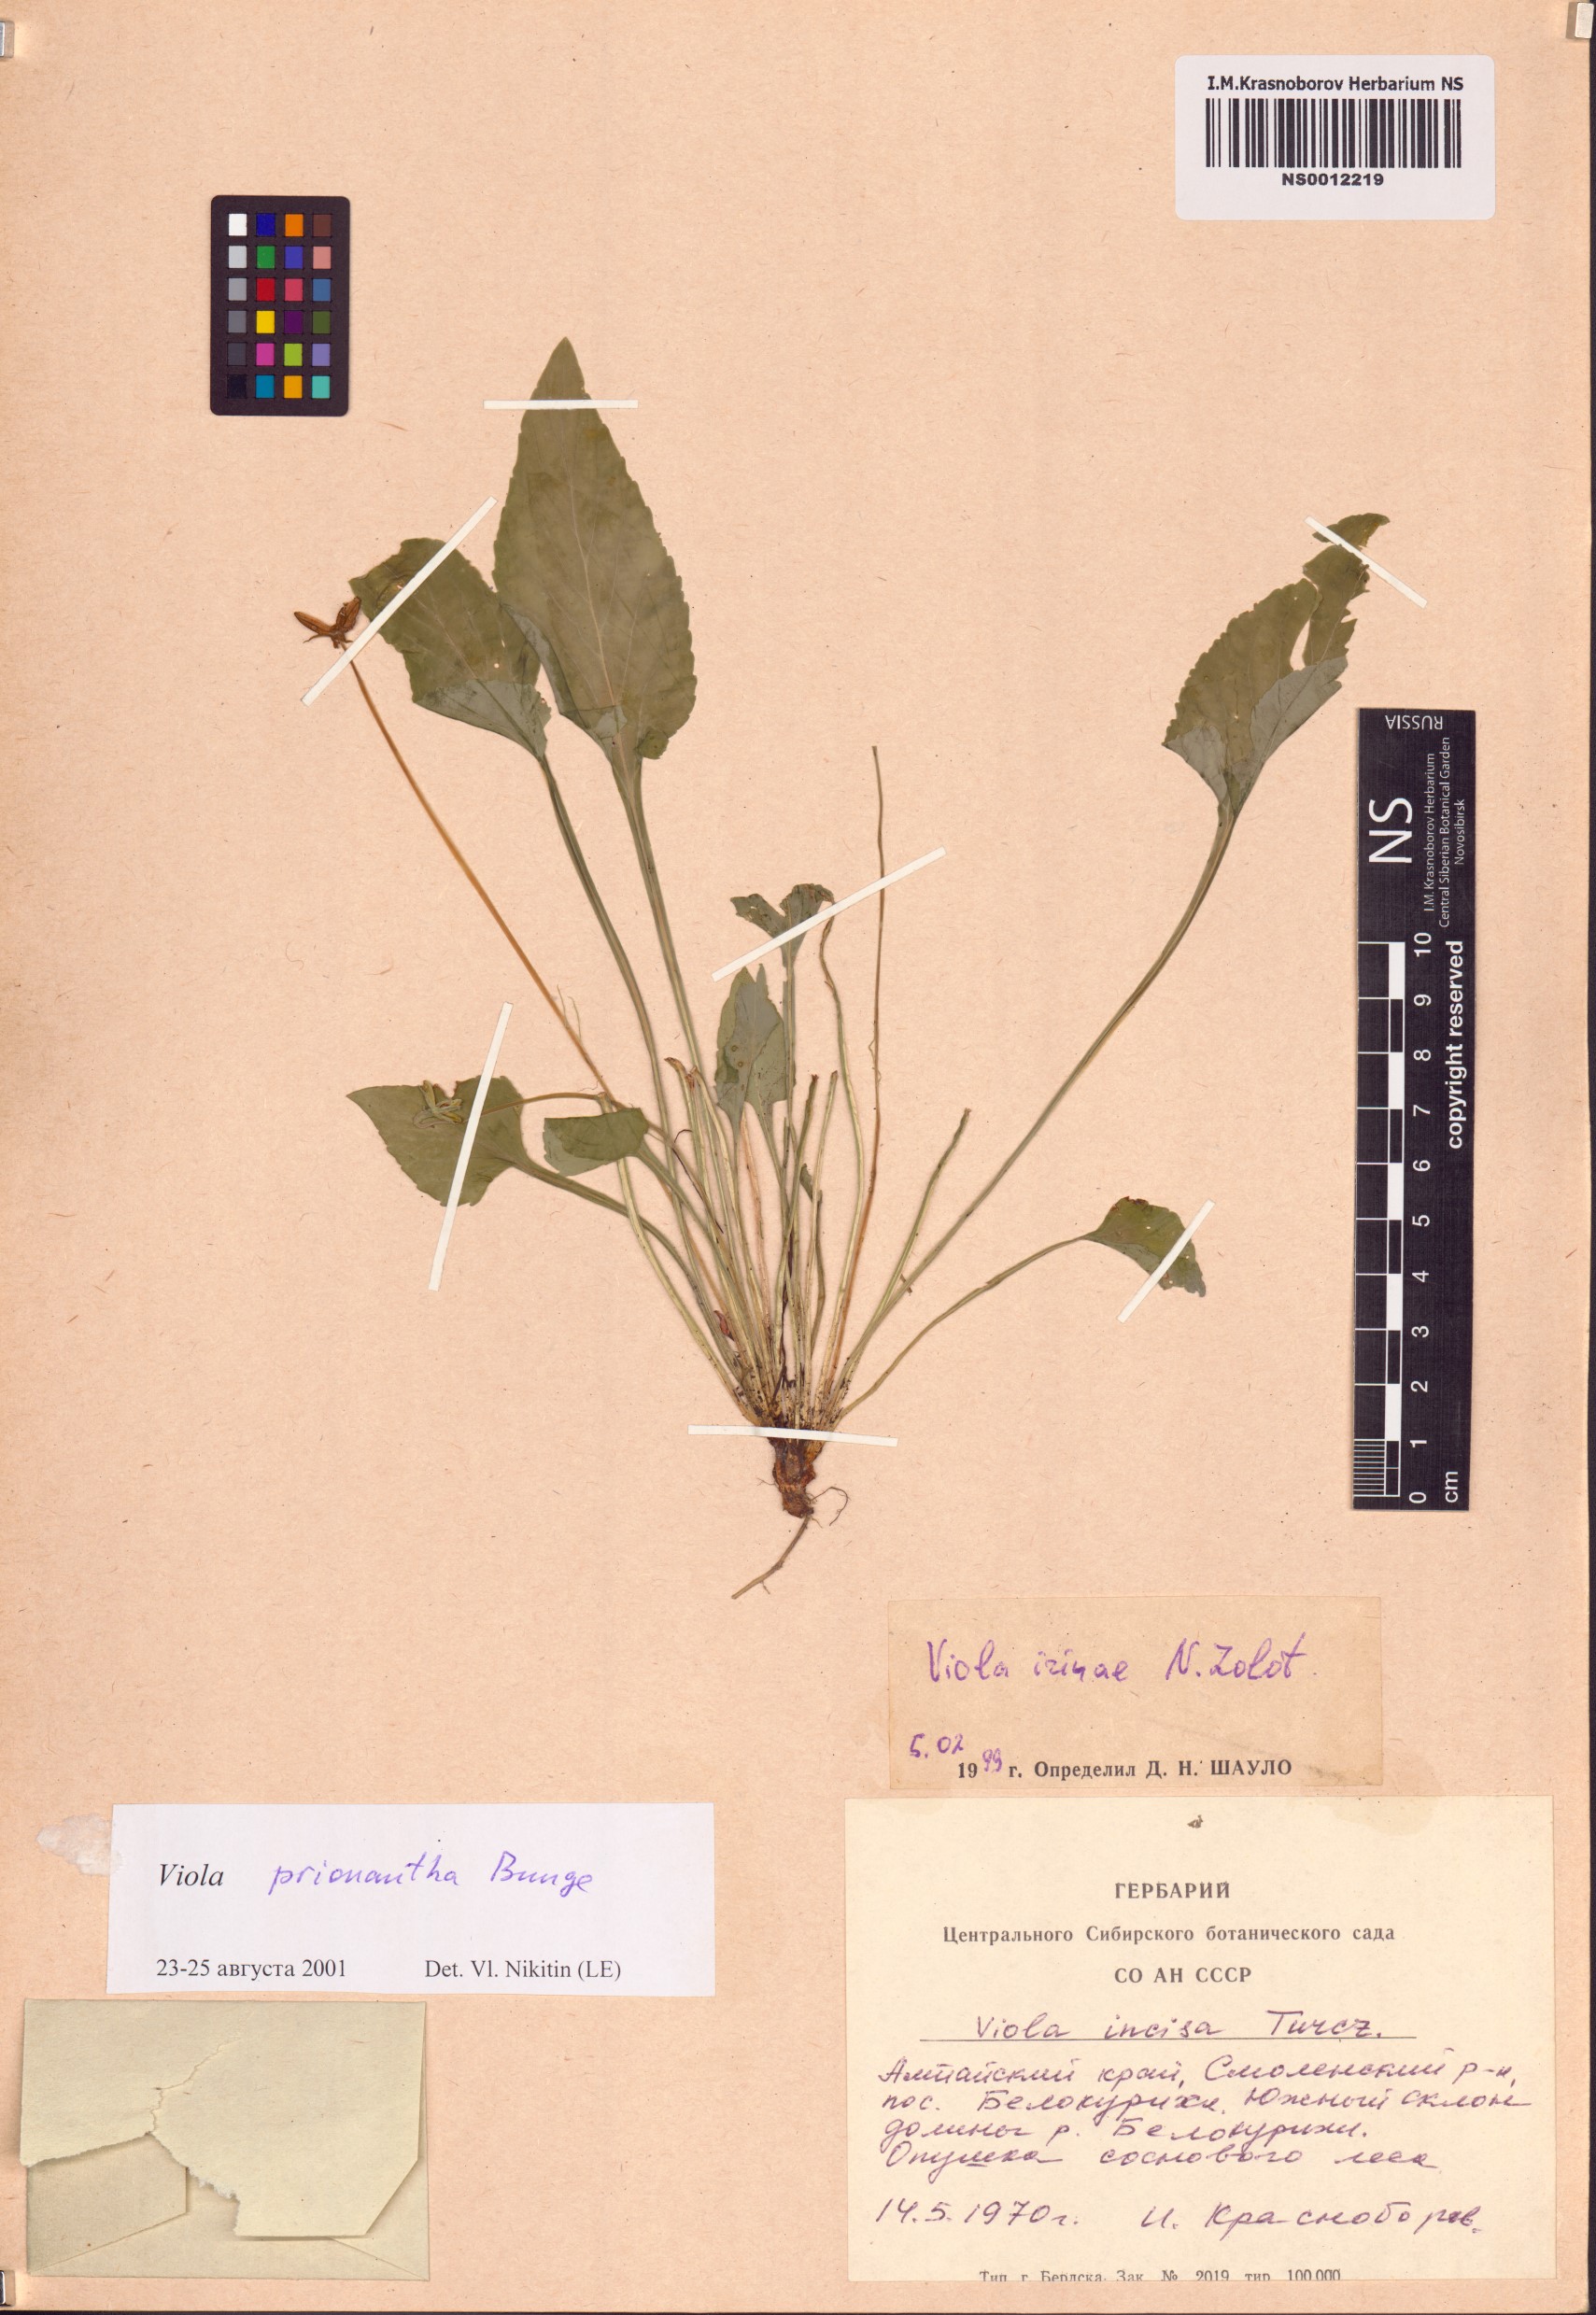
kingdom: Plantae
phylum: Tracheophyta
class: Magnoliopsida
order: Malpighiales
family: Violaceae
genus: Viola
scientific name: Viola prionantha
